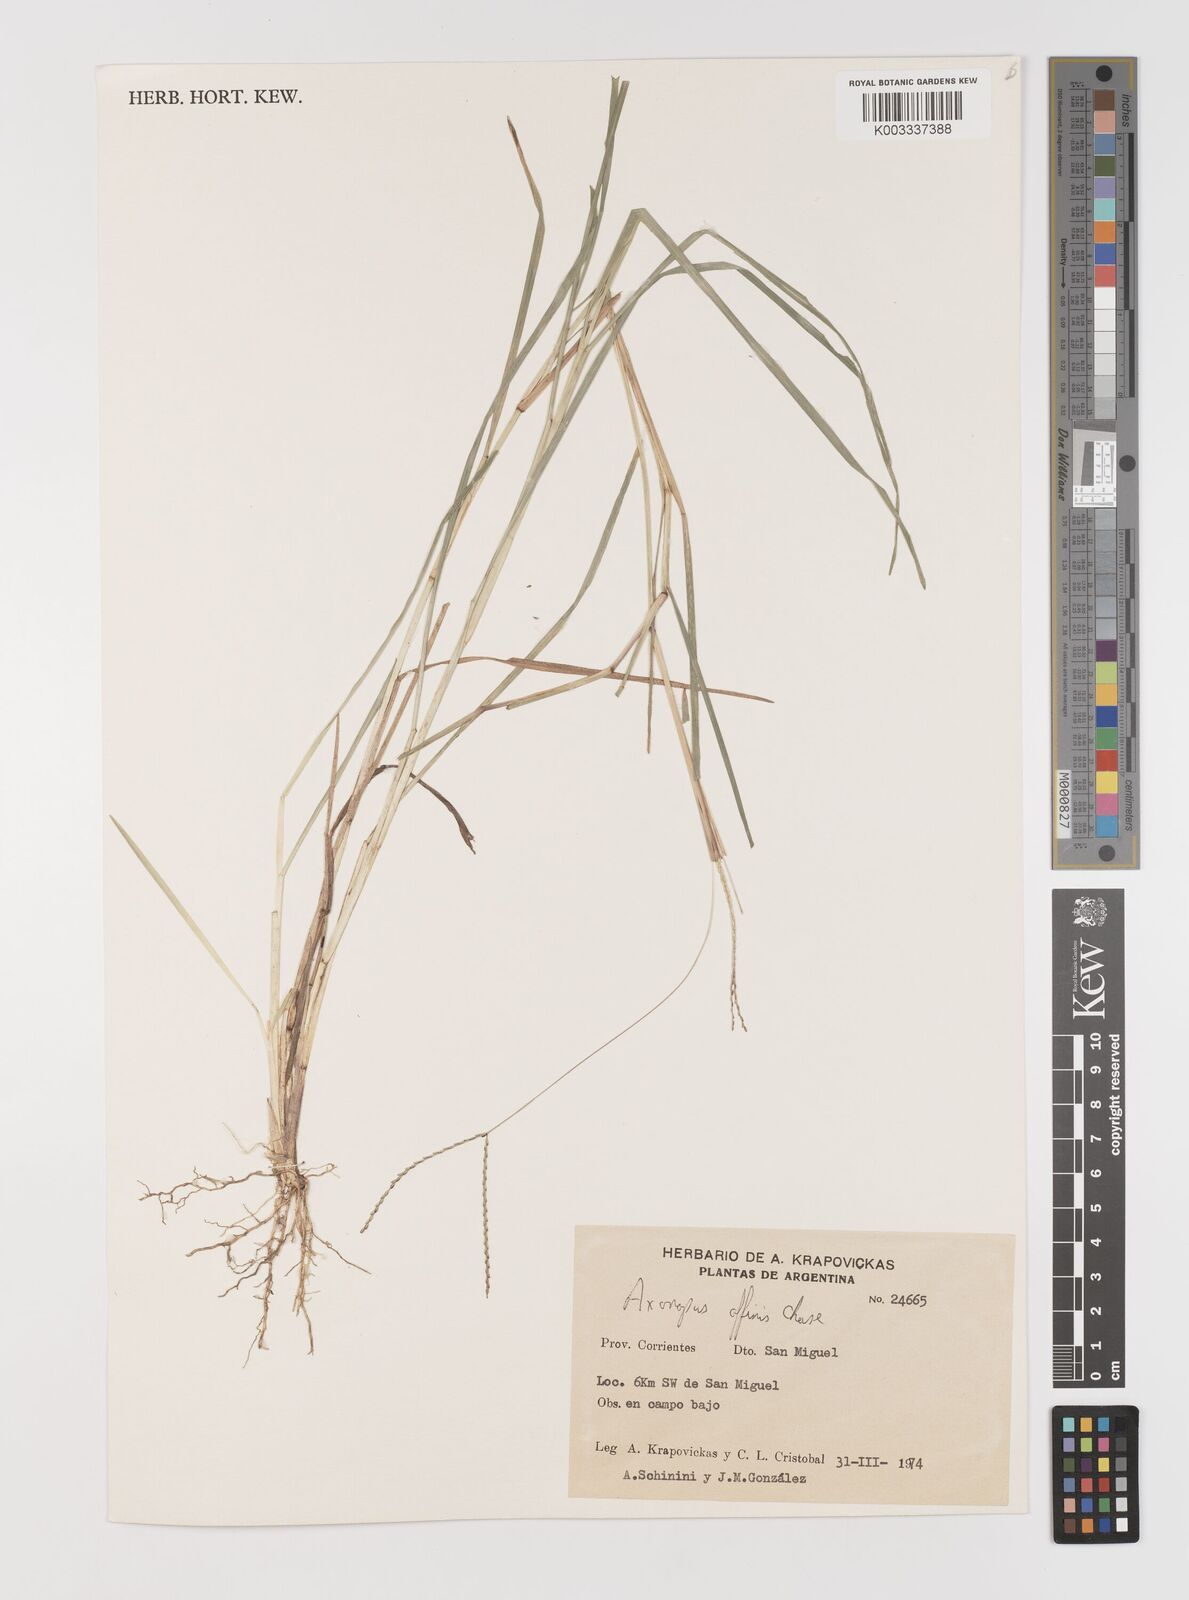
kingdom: Plantae
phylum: Tracheophyta
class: Liliopsida
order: Poales
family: Poaceae
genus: Axonopus
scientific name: Axonopus fissifolius
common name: Common carpetgrass
